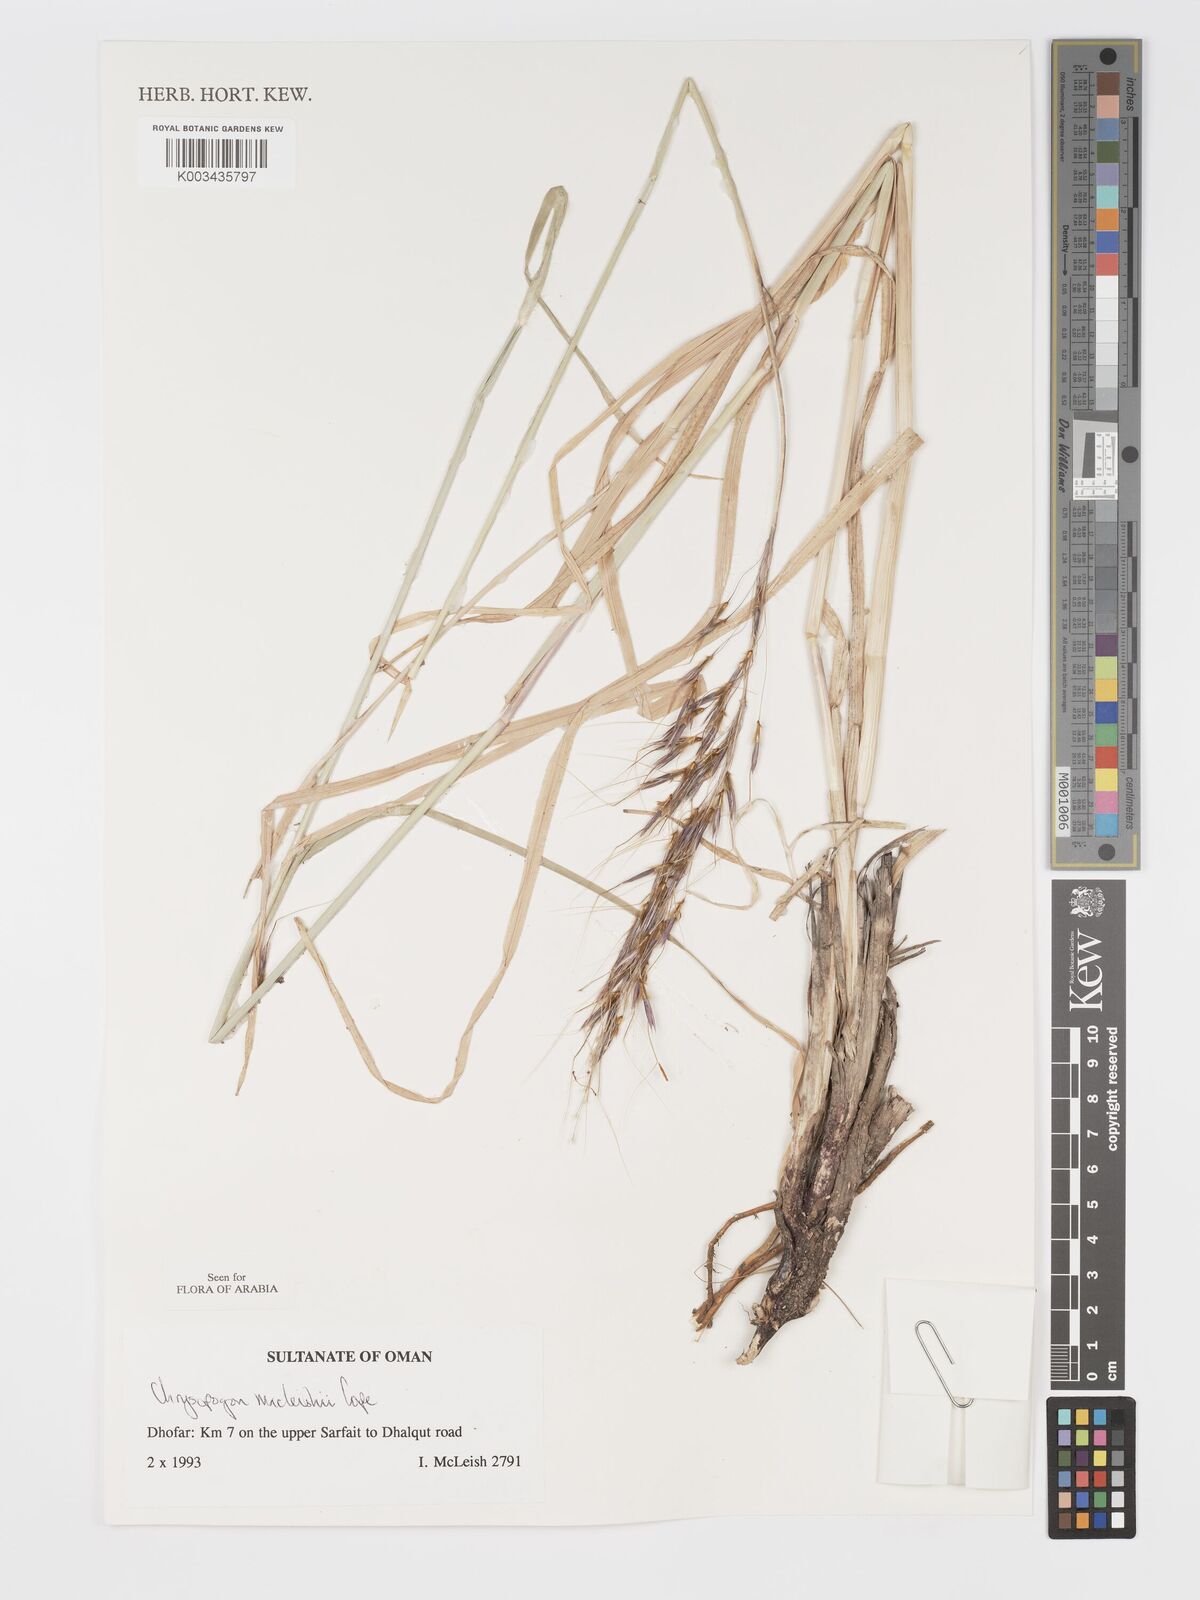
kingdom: Plantae
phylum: Tracheophyta
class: Liliopsida
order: Poales
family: Poaceae
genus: Chrysopogon
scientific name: Chrysopogon macleishii
